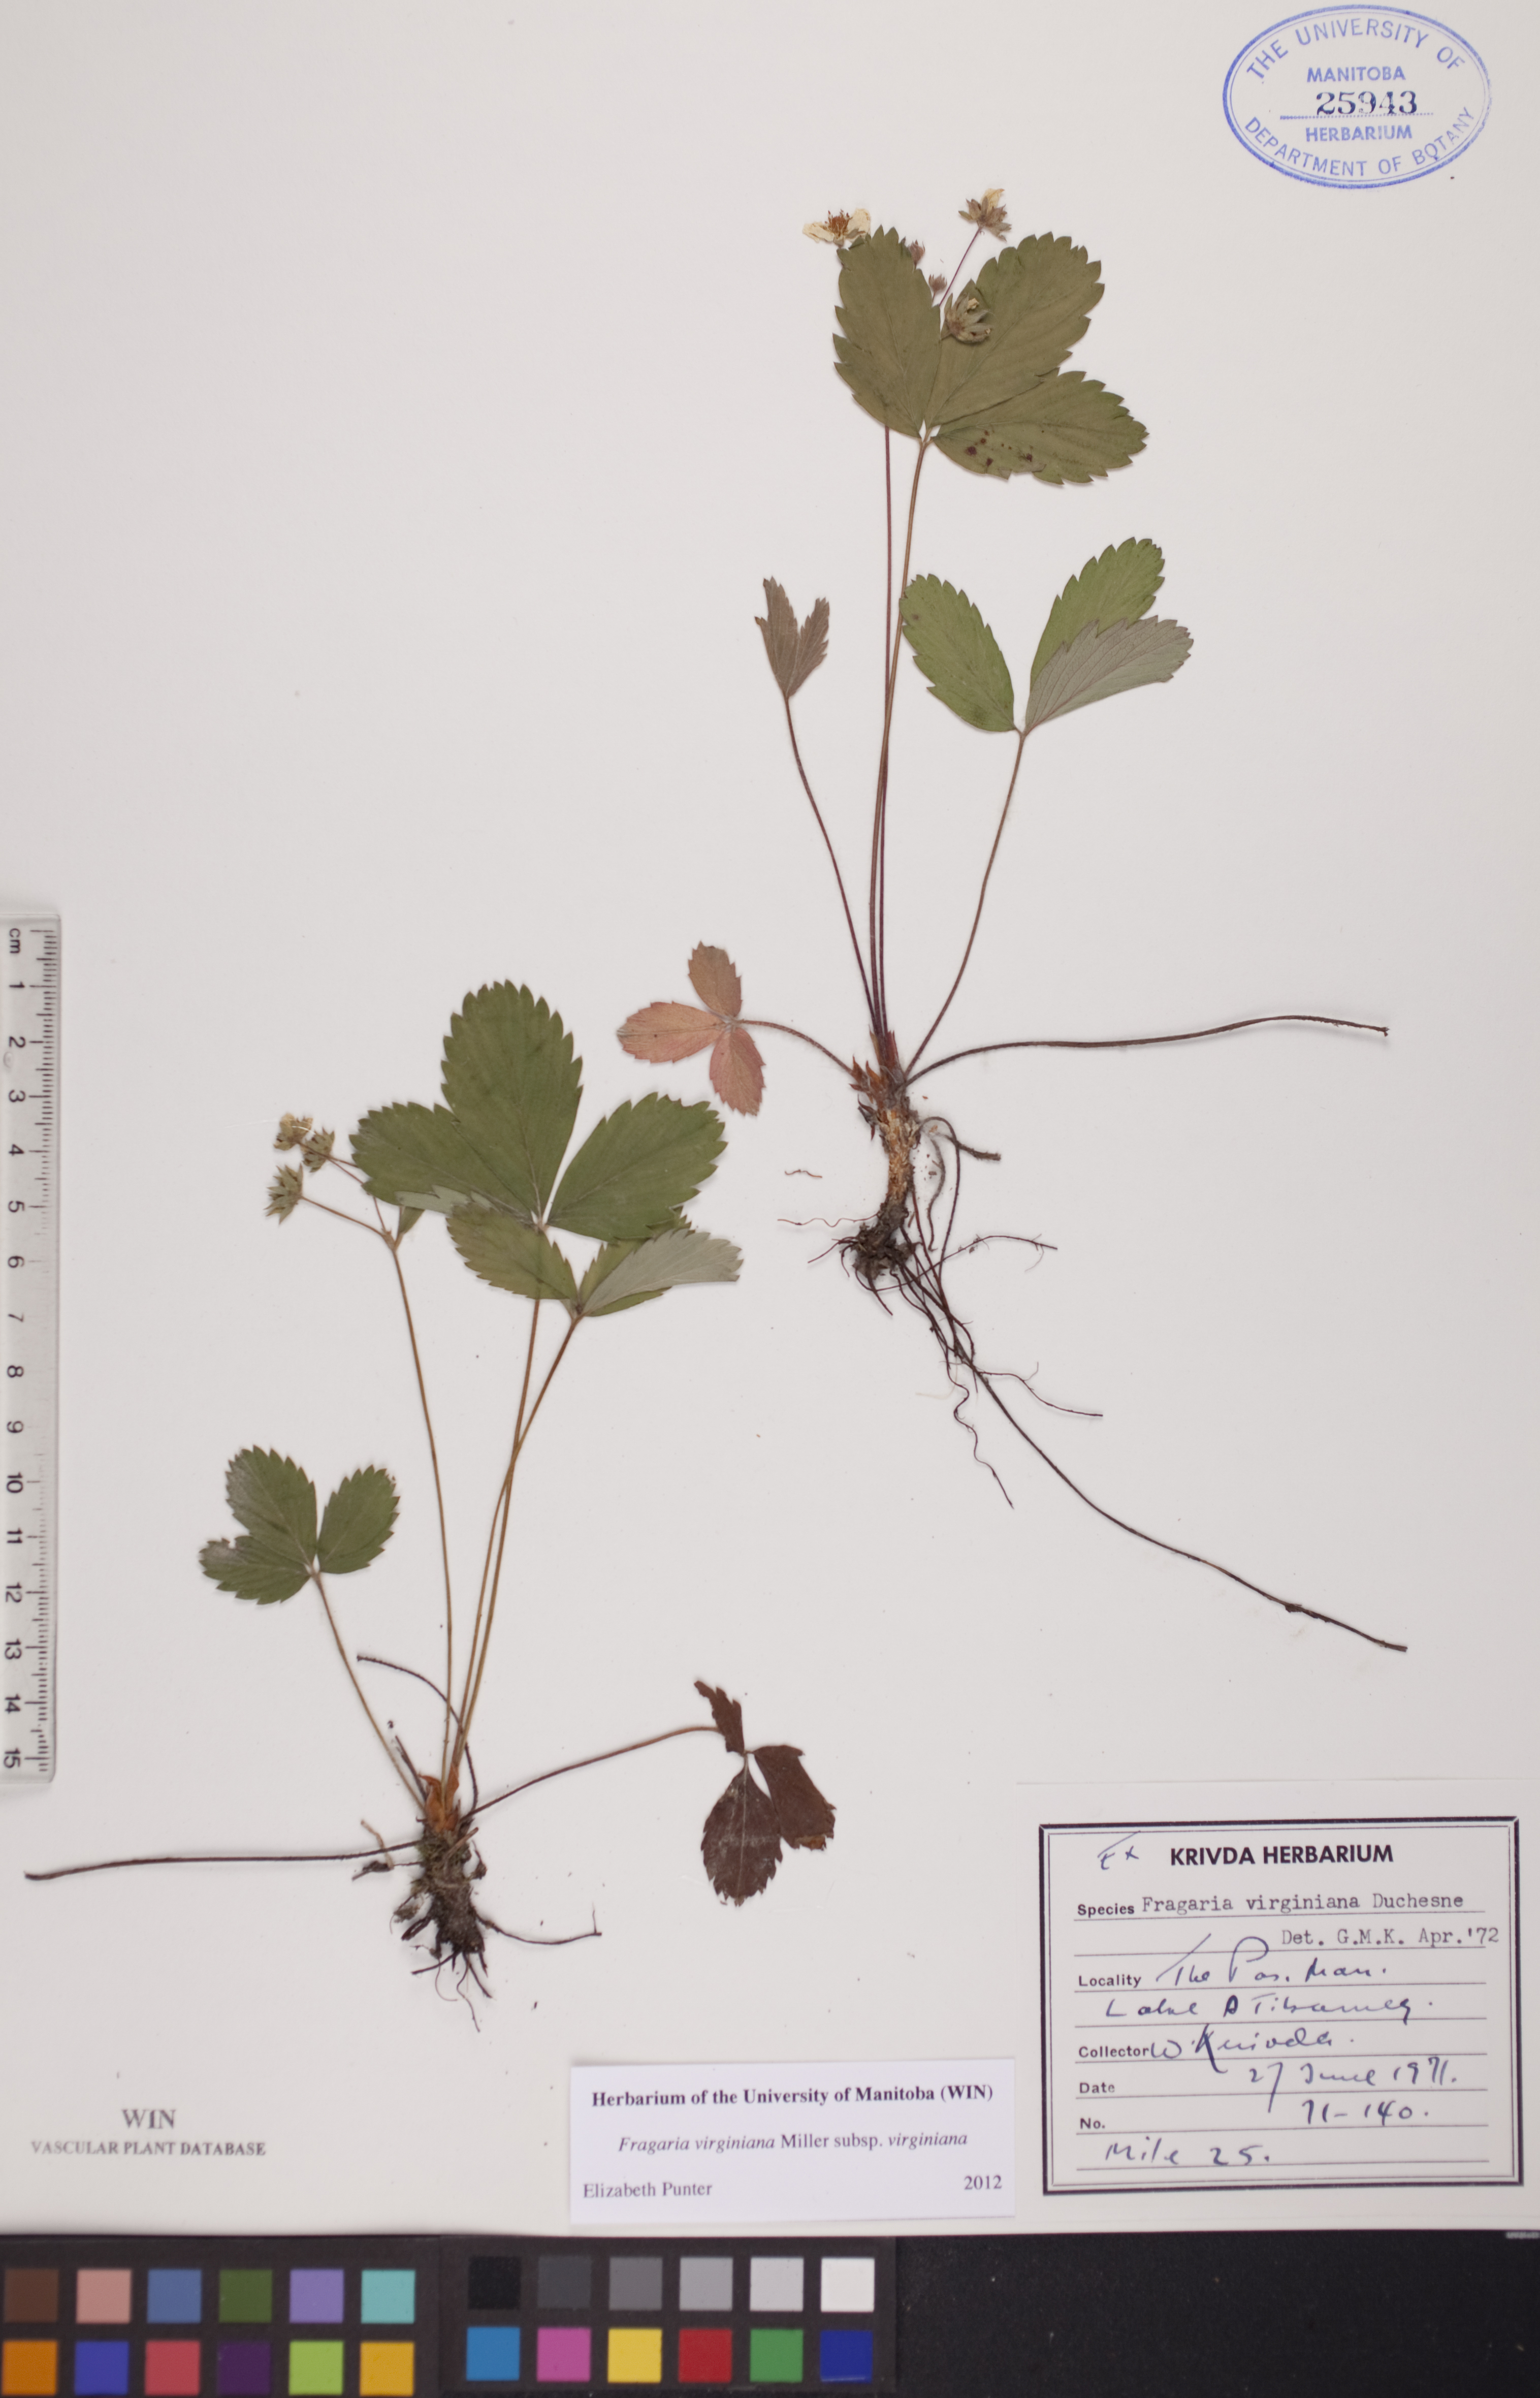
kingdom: Plantae
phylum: Tracheophyta
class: Magnoliopsida
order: Rosales
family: Rosaceae
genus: Fragaria
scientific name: Fragaria virginiana
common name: Thickleaved wild strawberry
